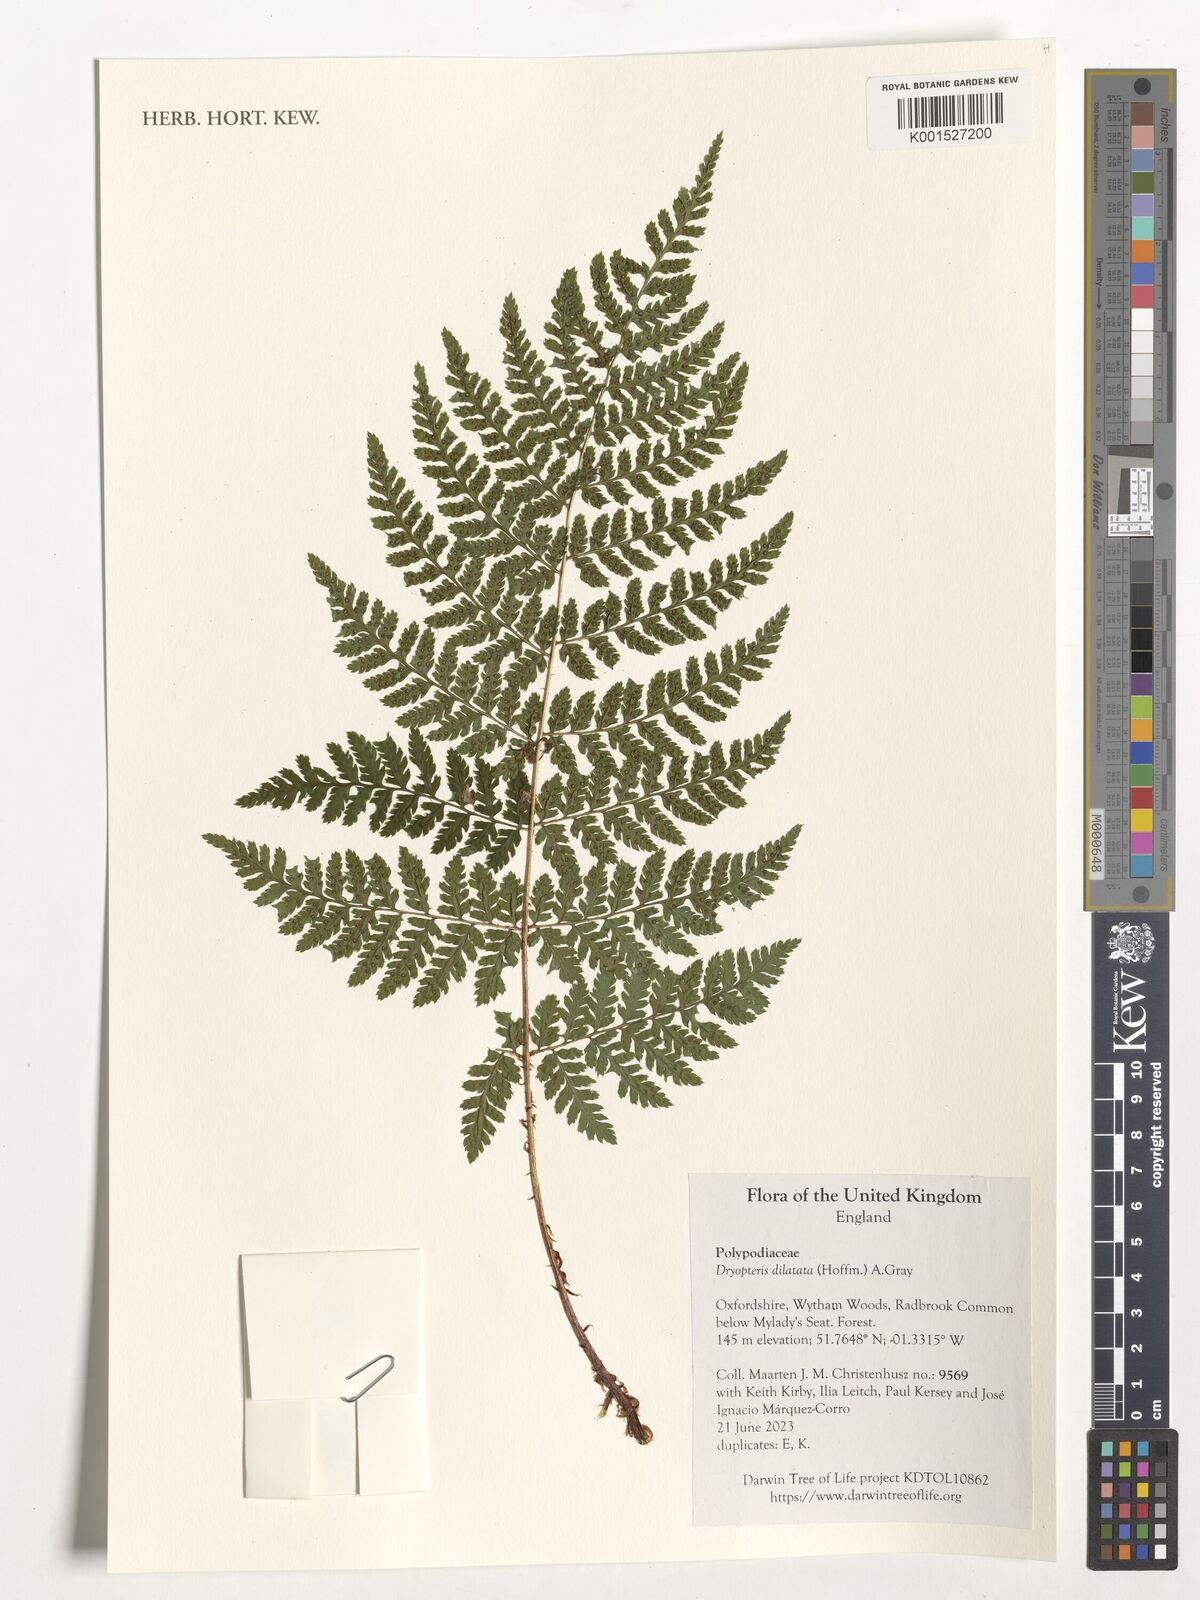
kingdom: Plantae
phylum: Tracheophyta
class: Polypodiopsida
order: Polypodiales
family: Dryopteridaceae
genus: Dryopteris
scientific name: Dryopteris dilatata
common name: Broad buckler-fern
